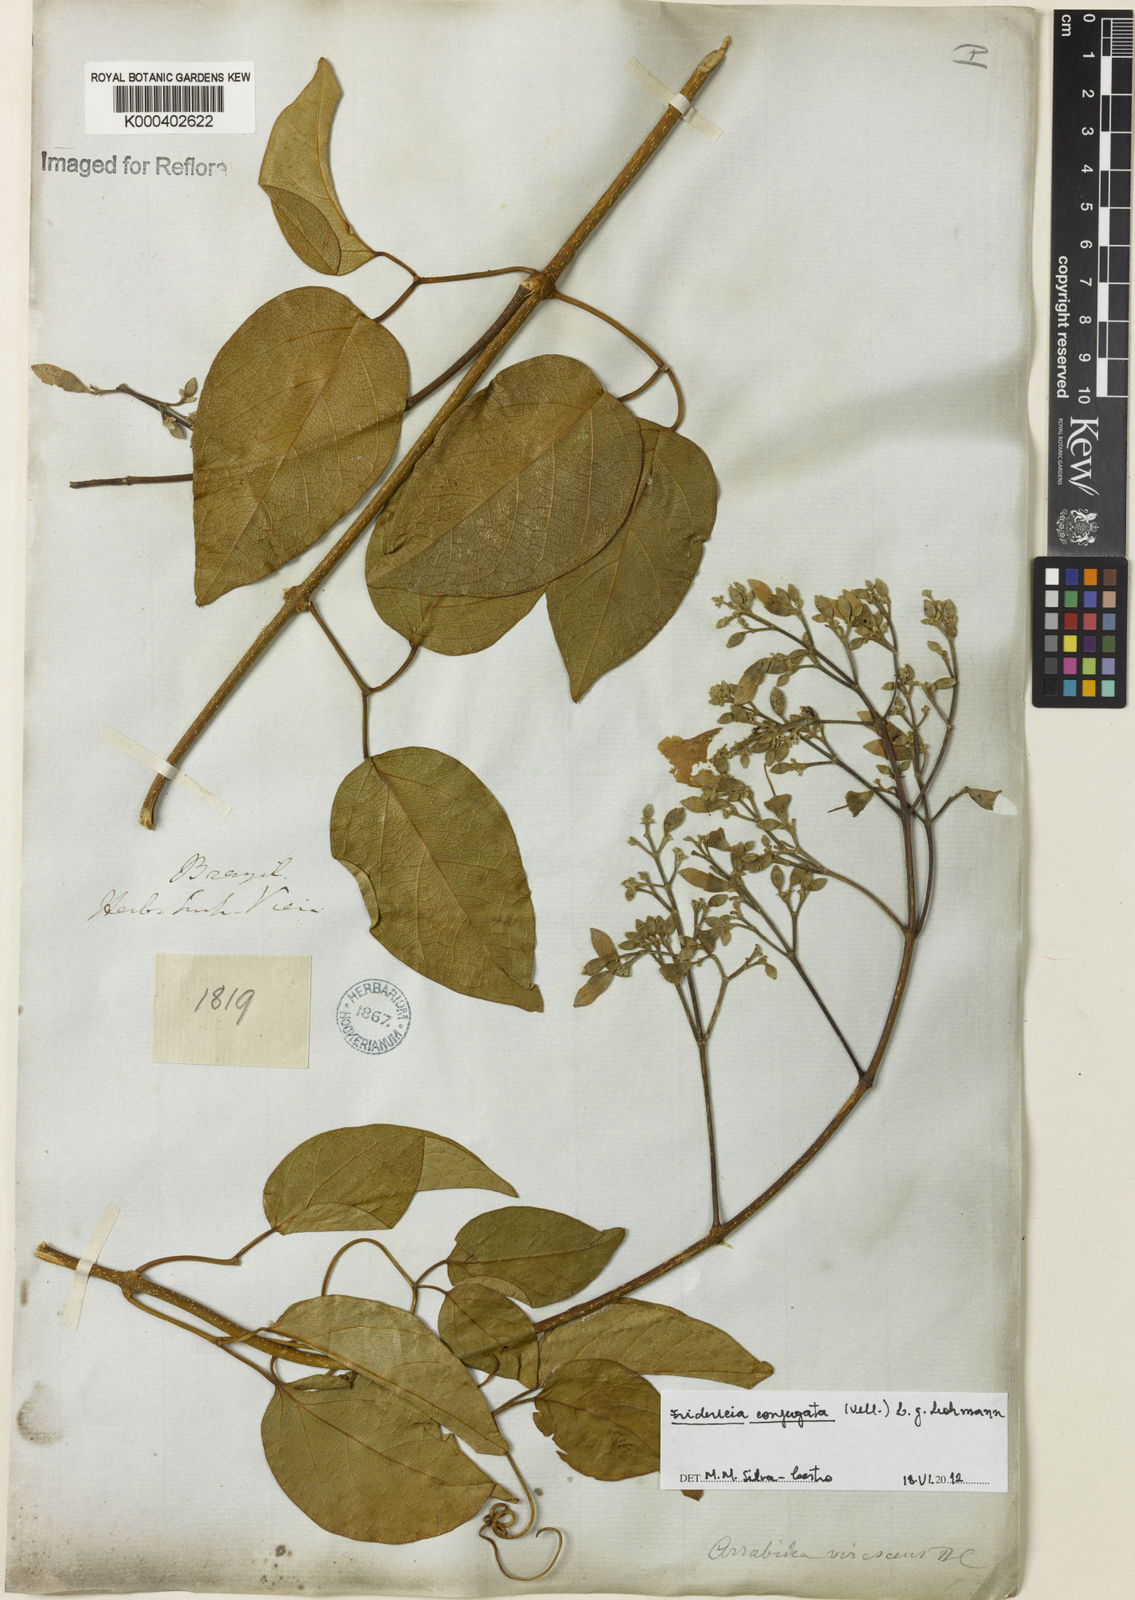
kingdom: Plantae
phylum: Tracheophyta
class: Magnoliopsida
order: Lamiales
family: Bignoniaceae
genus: Fridericia
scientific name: Fridericia conjugata
